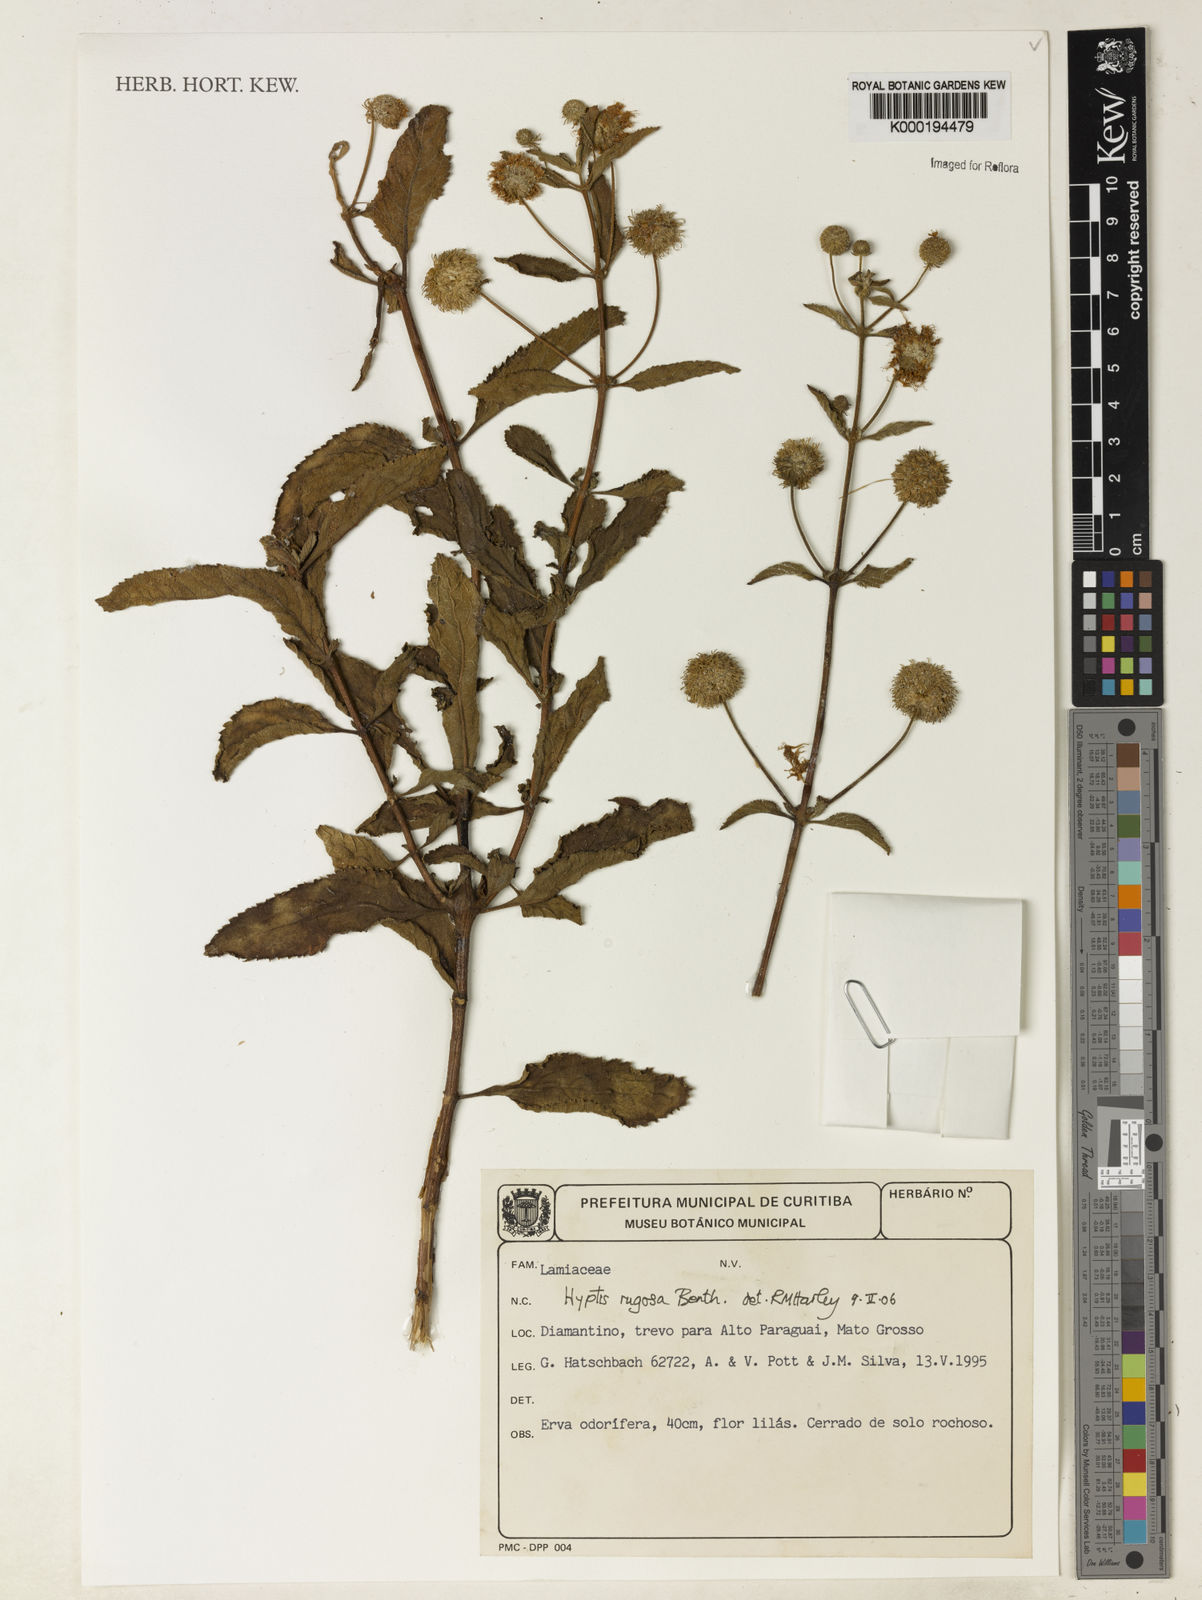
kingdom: Plantae
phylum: Tracheophyta
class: Magnoliopsida
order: Lamiales
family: Lamiaceae
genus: Cyanocephalus
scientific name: Cyanocephalus rugosus
